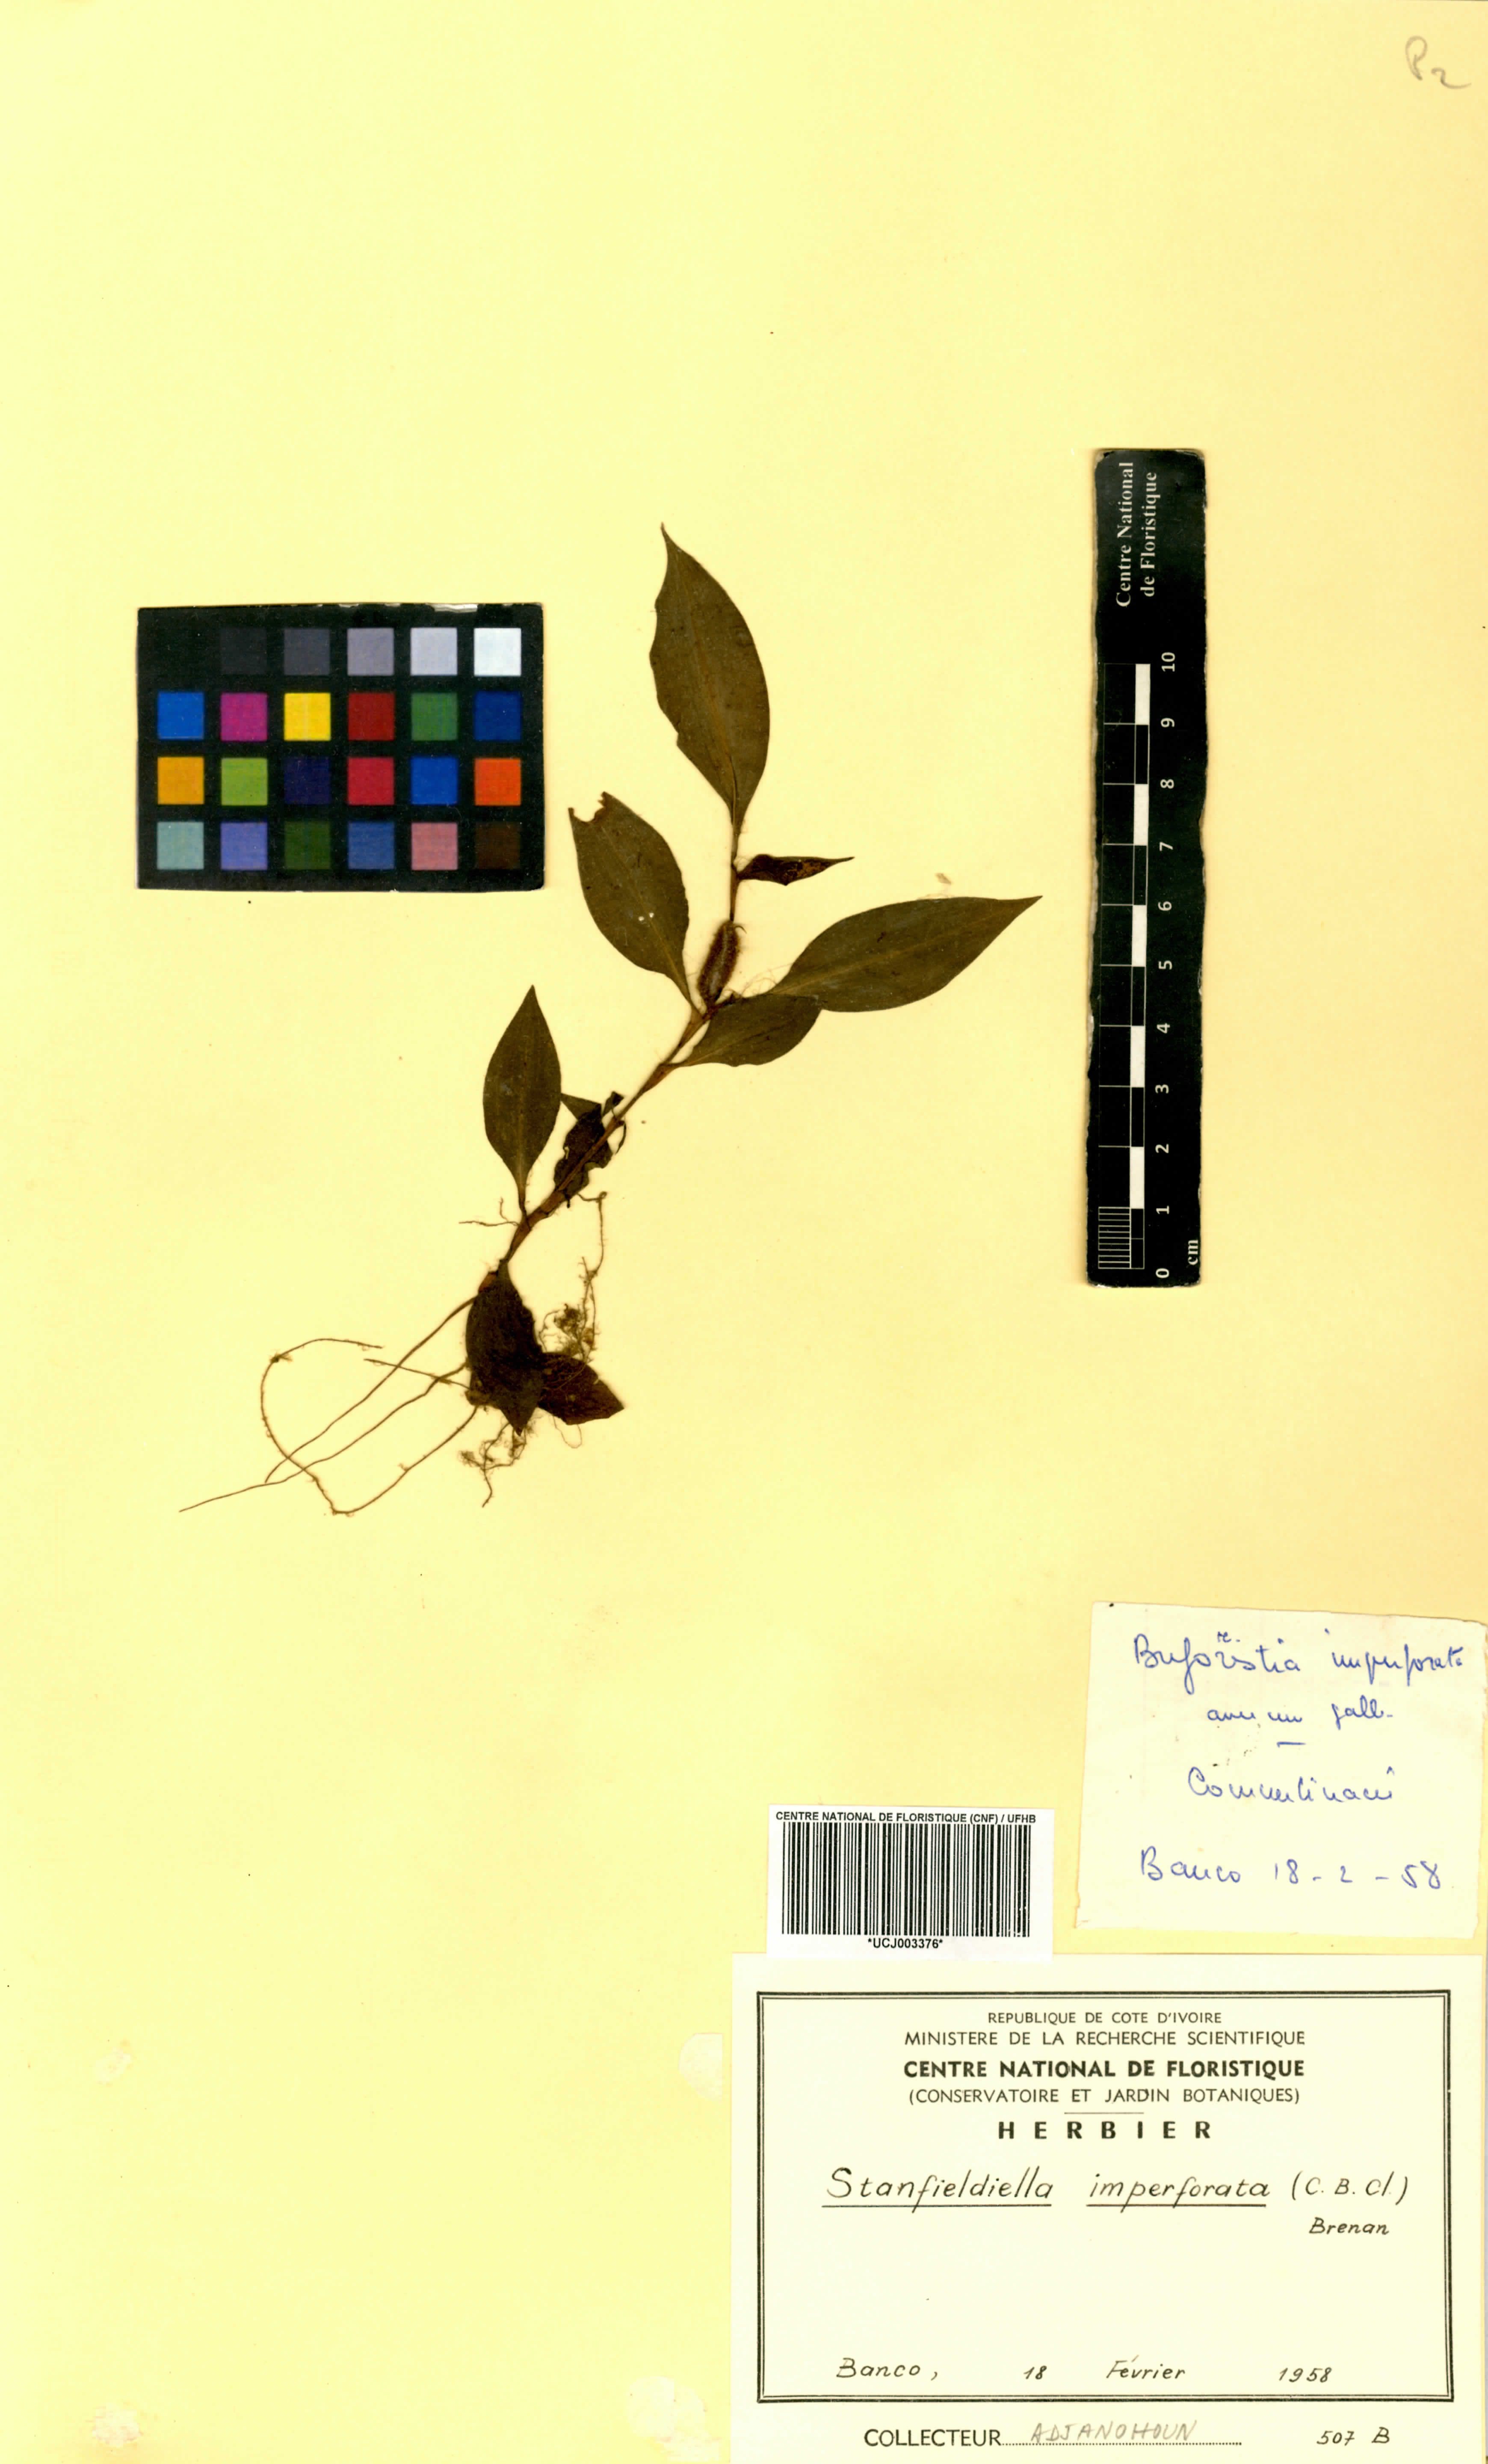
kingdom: Plantae
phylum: Tracheophyta
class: Liliopsida
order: Commelinales
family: Commelinaceae
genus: Stanfieldiella
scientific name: Stanfieldiella imperforata
